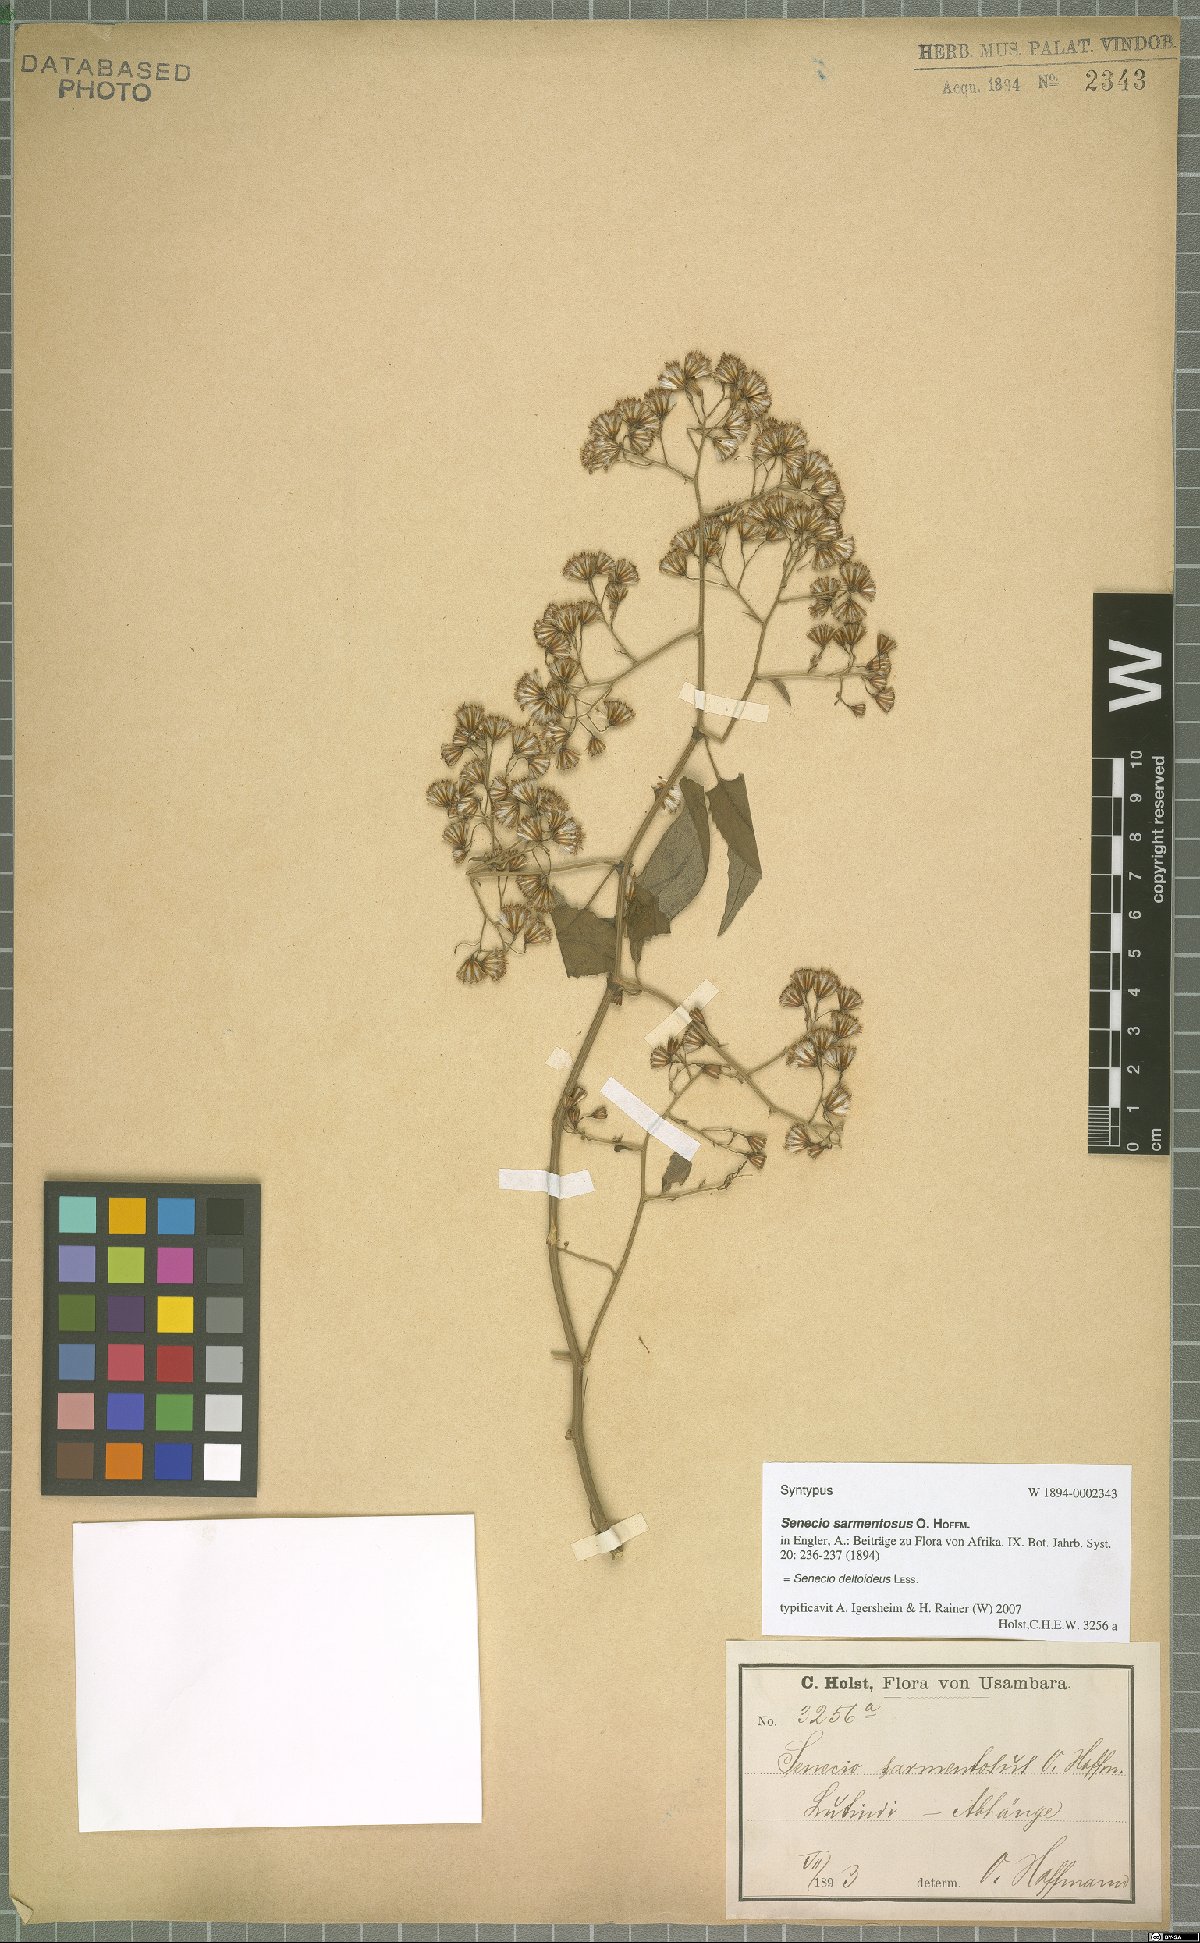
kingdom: Plantae
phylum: Tracheophyta
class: Magnoliopsida
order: Asterales
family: Asteraceae
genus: Senecio
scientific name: Senecio deltoideus
